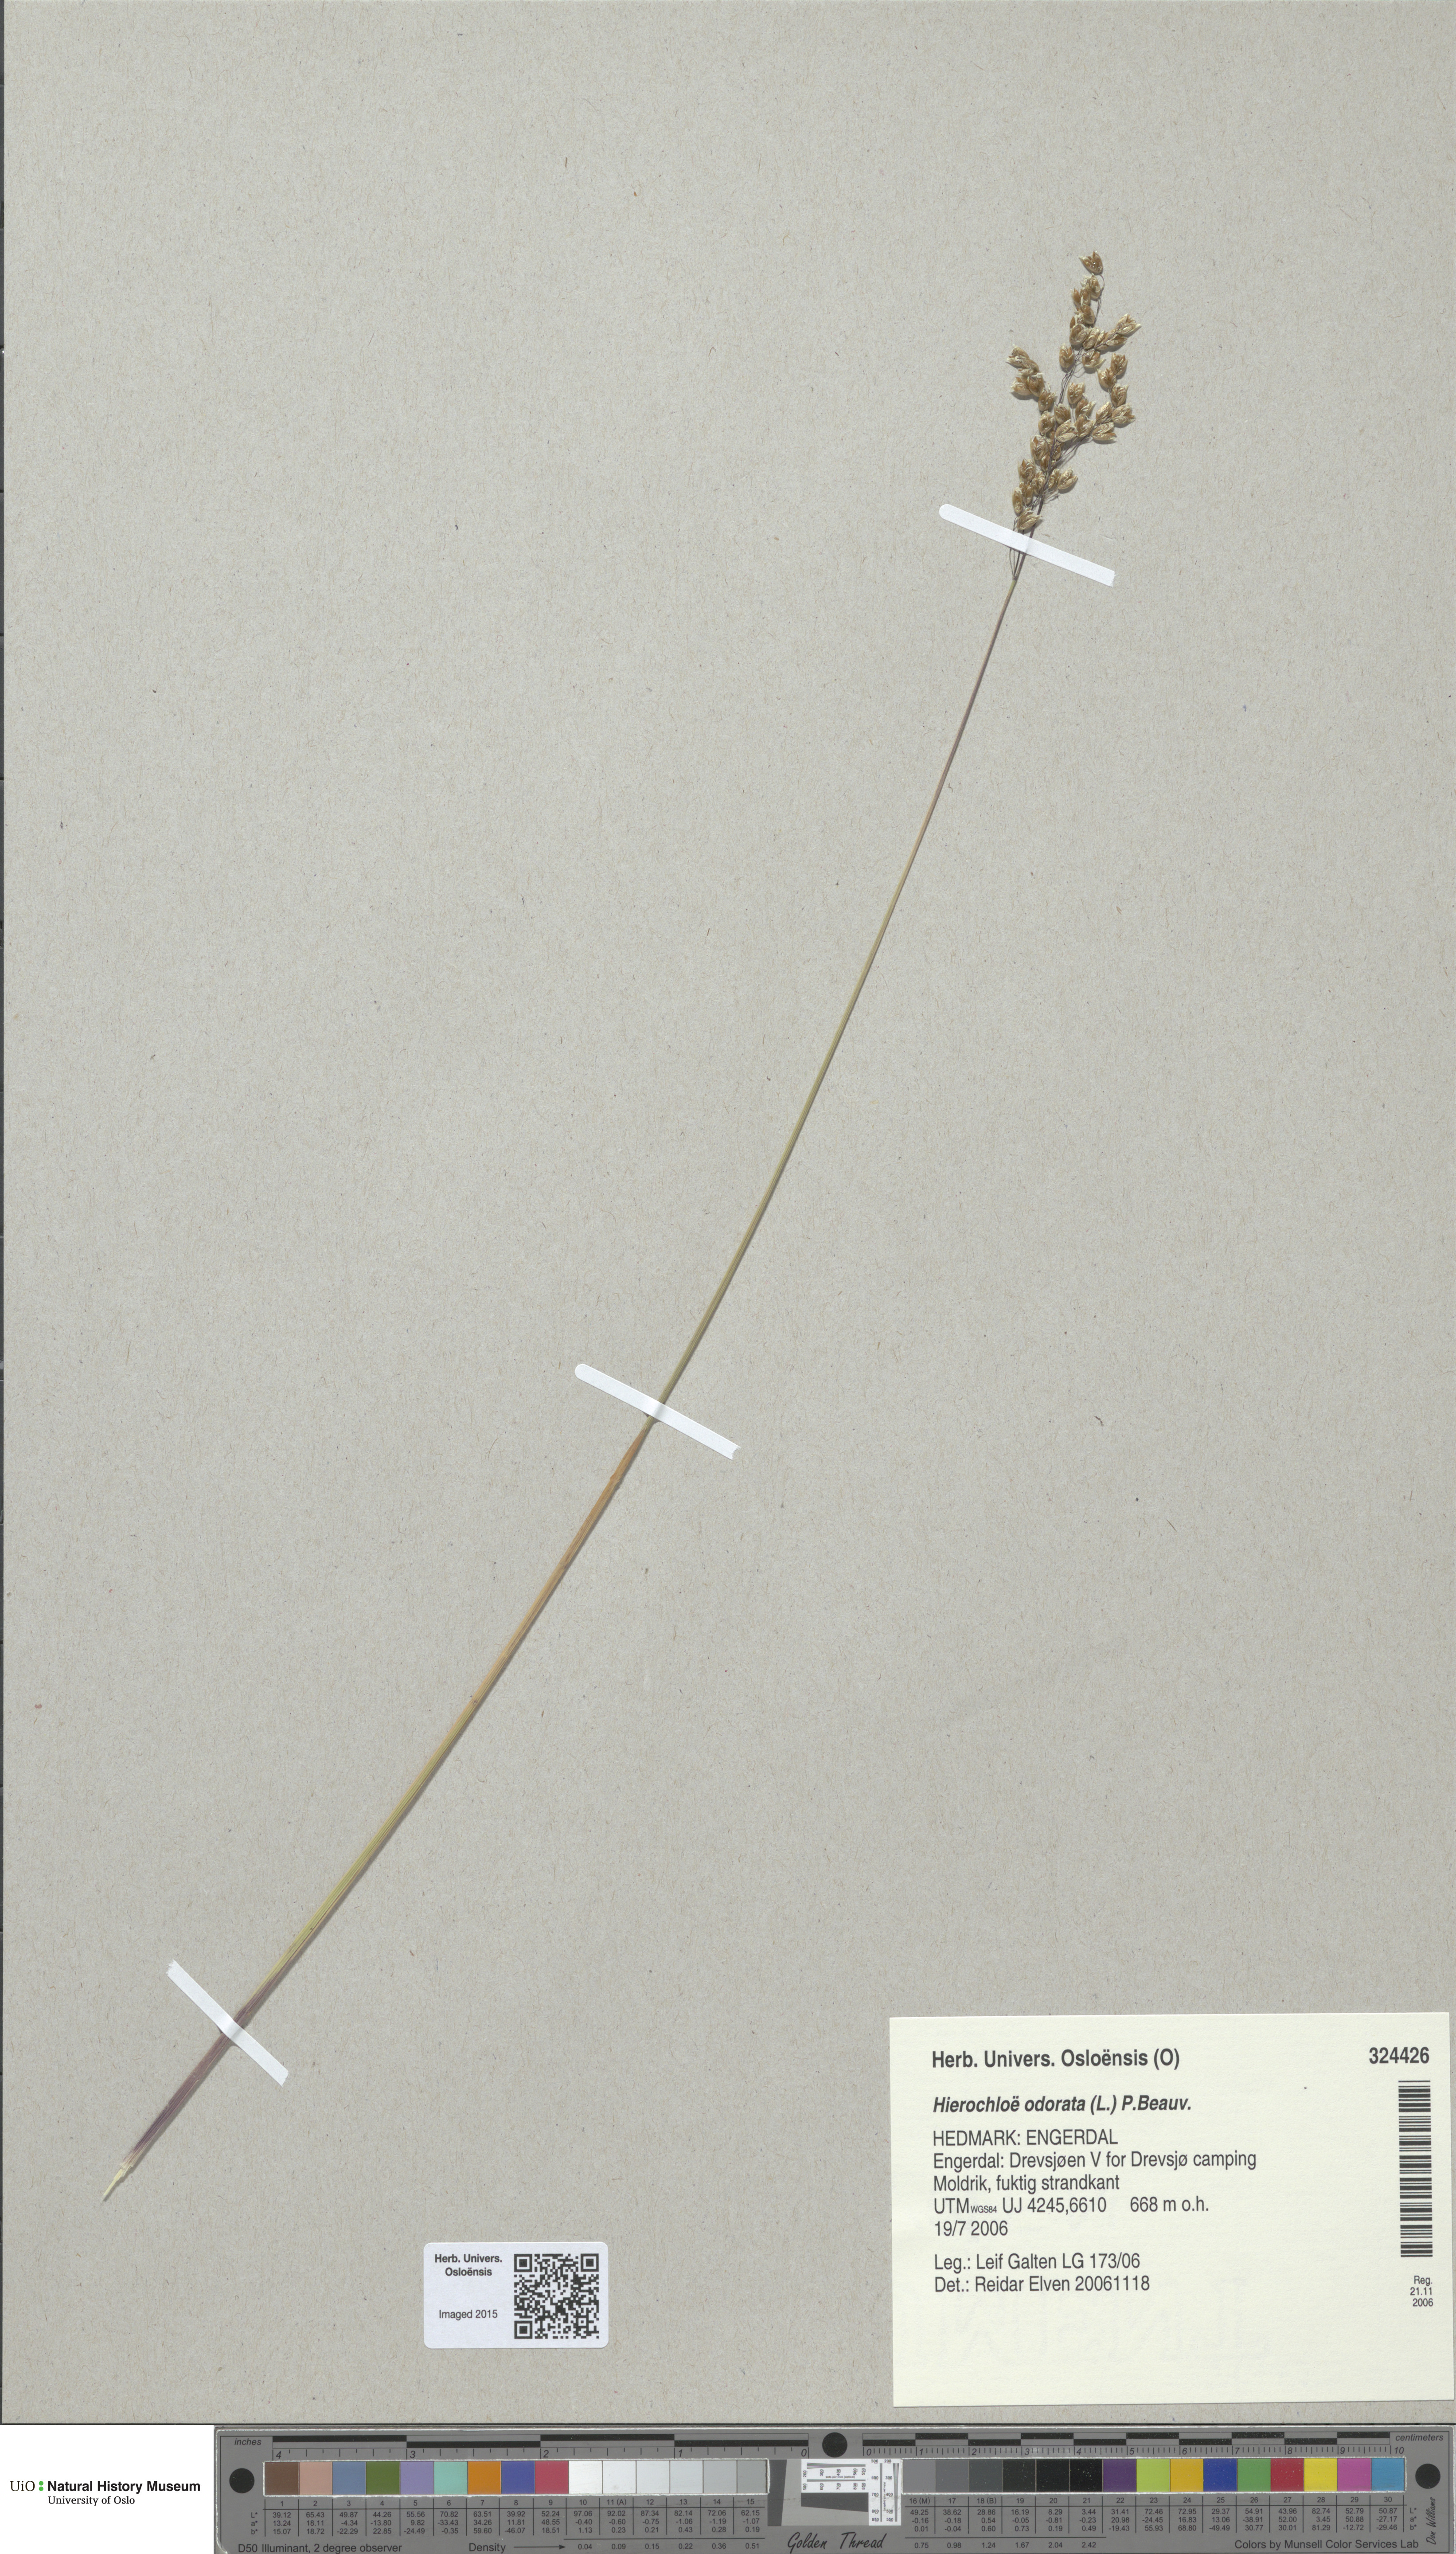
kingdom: Plantae
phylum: Tracheophyta
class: Liliopsida
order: Poales
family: Poaceae
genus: Anthoxanthum
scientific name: Anthoxanthum nitens
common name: Holy grass
